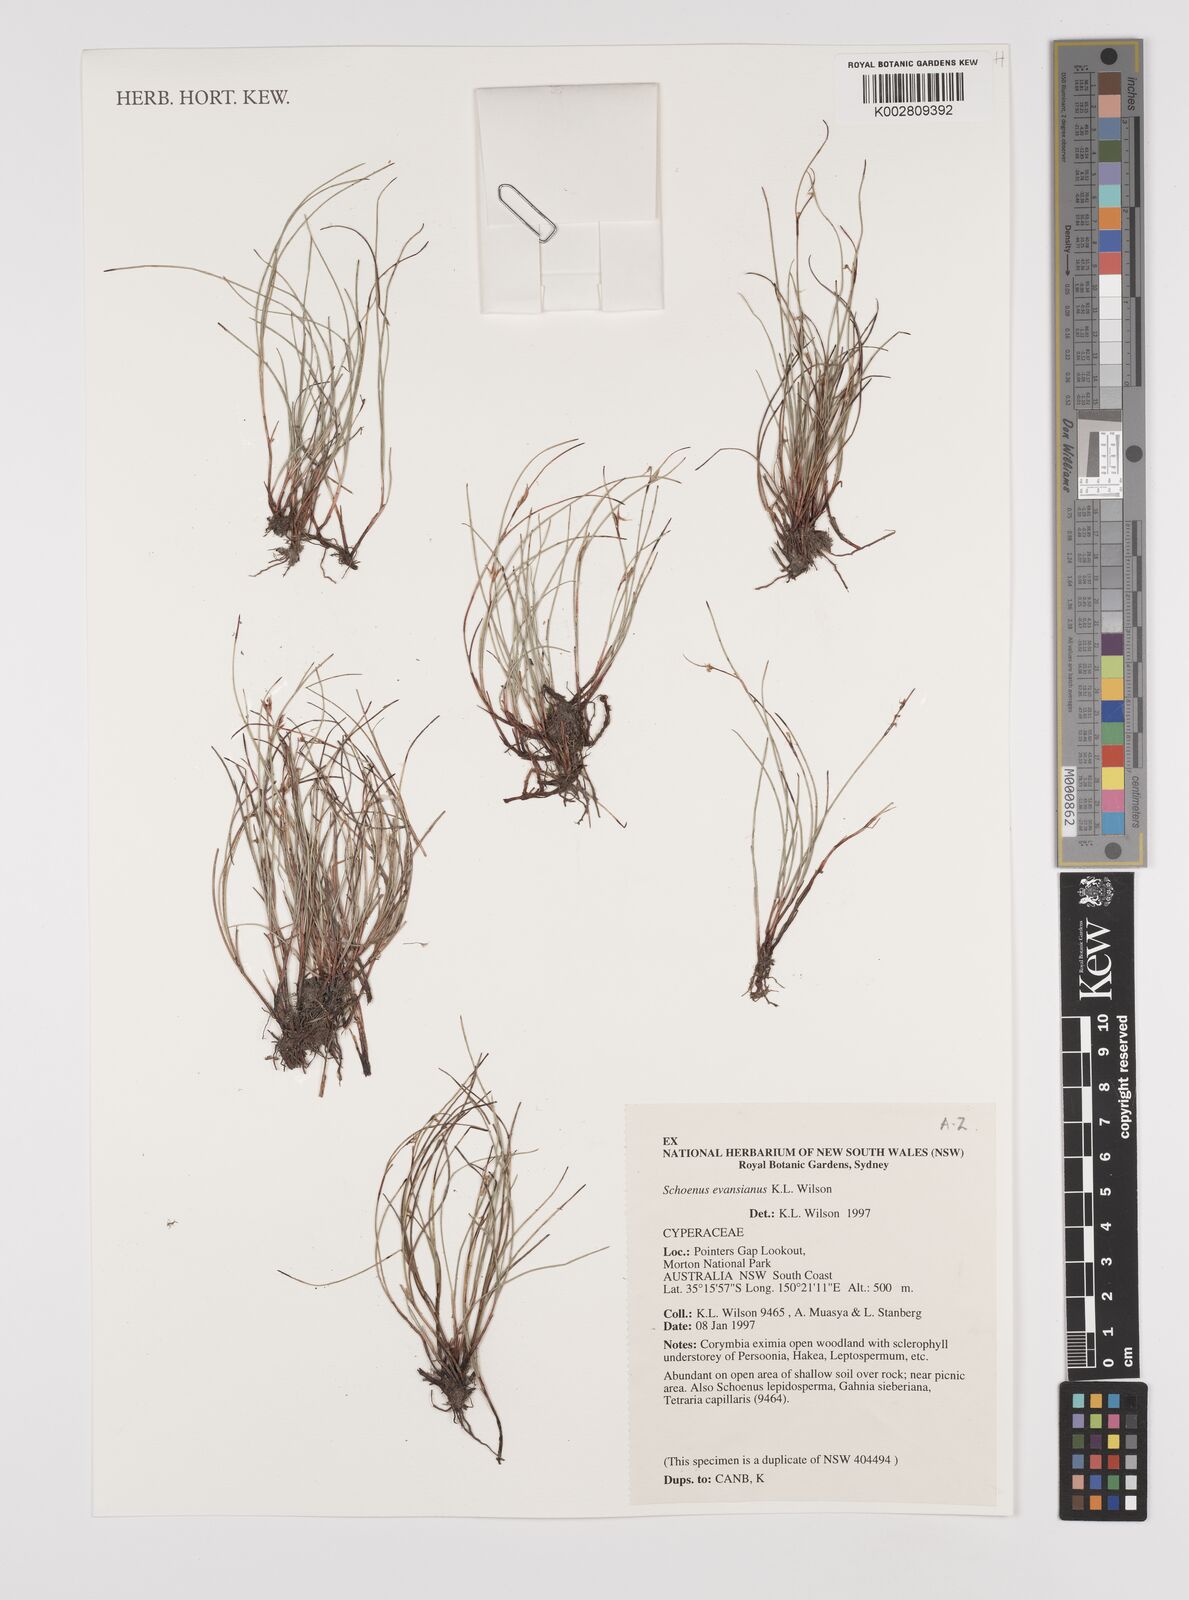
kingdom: Plantae
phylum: Tracheophyta
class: Liliopsida
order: Poales
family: Cyperaceae
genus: Schoenus
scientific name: Schoenus evansianus
